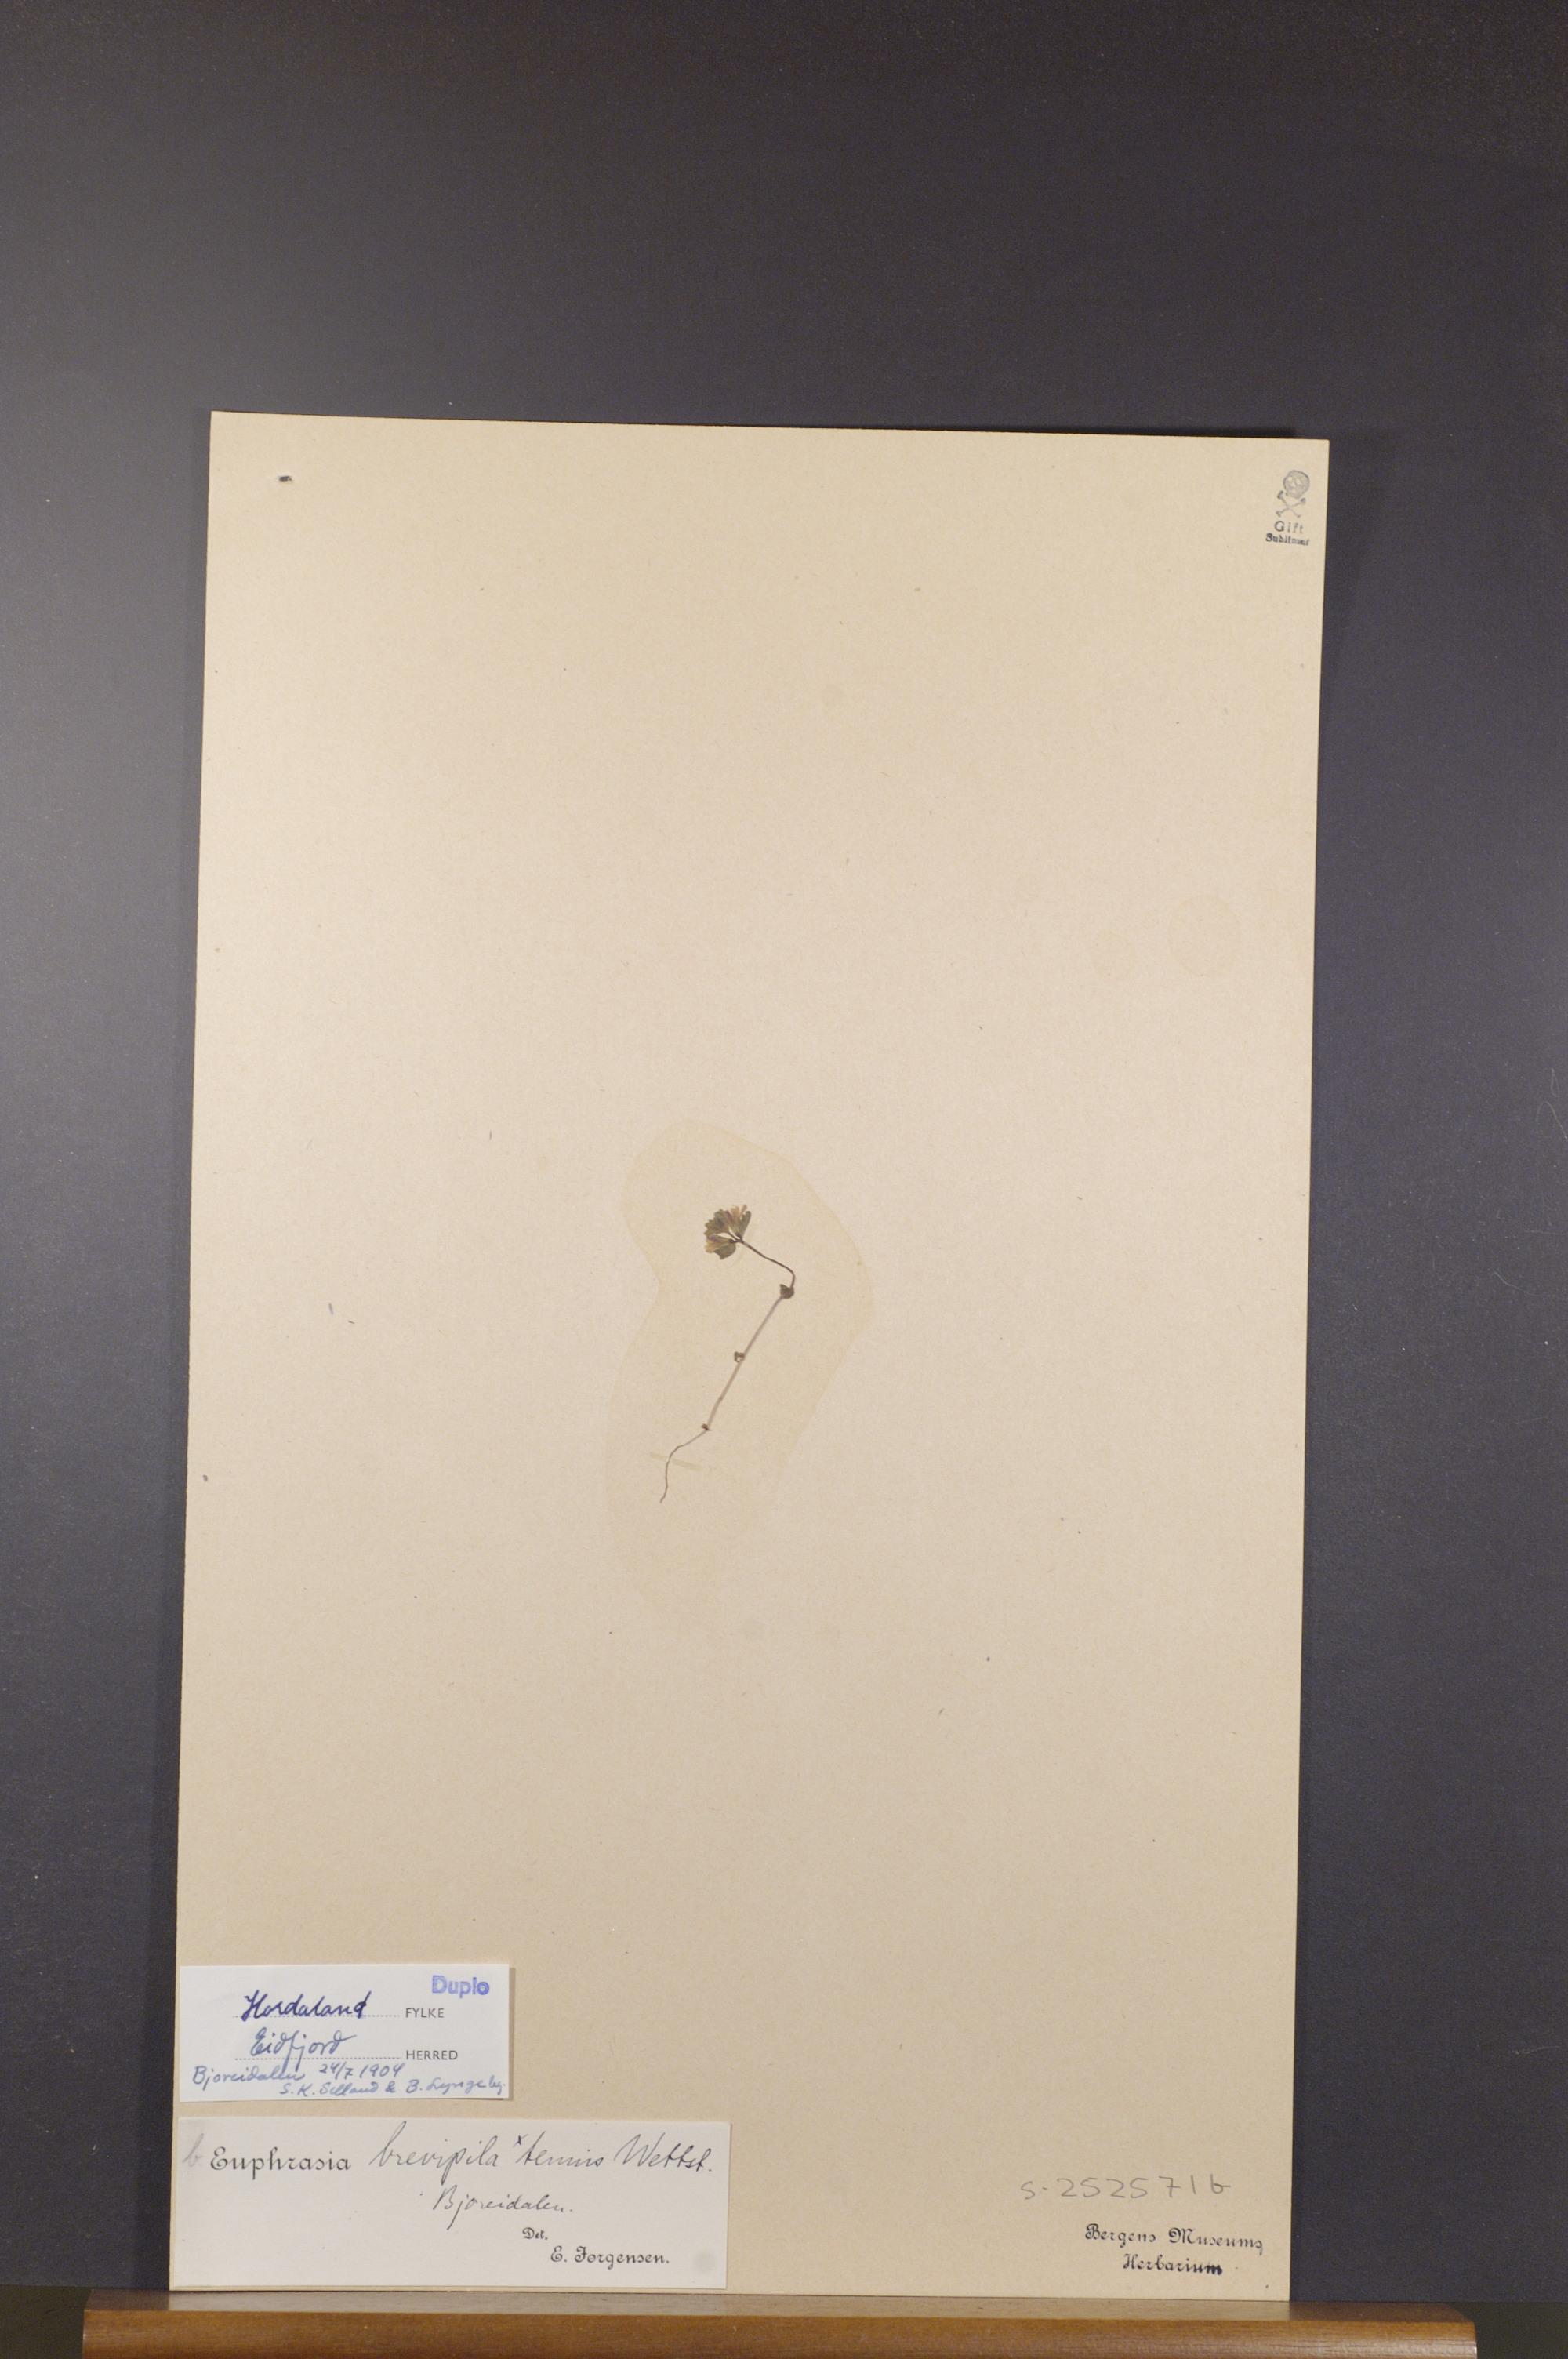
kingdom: Plantae
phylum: Tracheophyta
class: Magnoliopsida
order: Lamiales
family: Orobanchaceae
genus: Euphrasia
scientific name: Euphrasia vernalis
